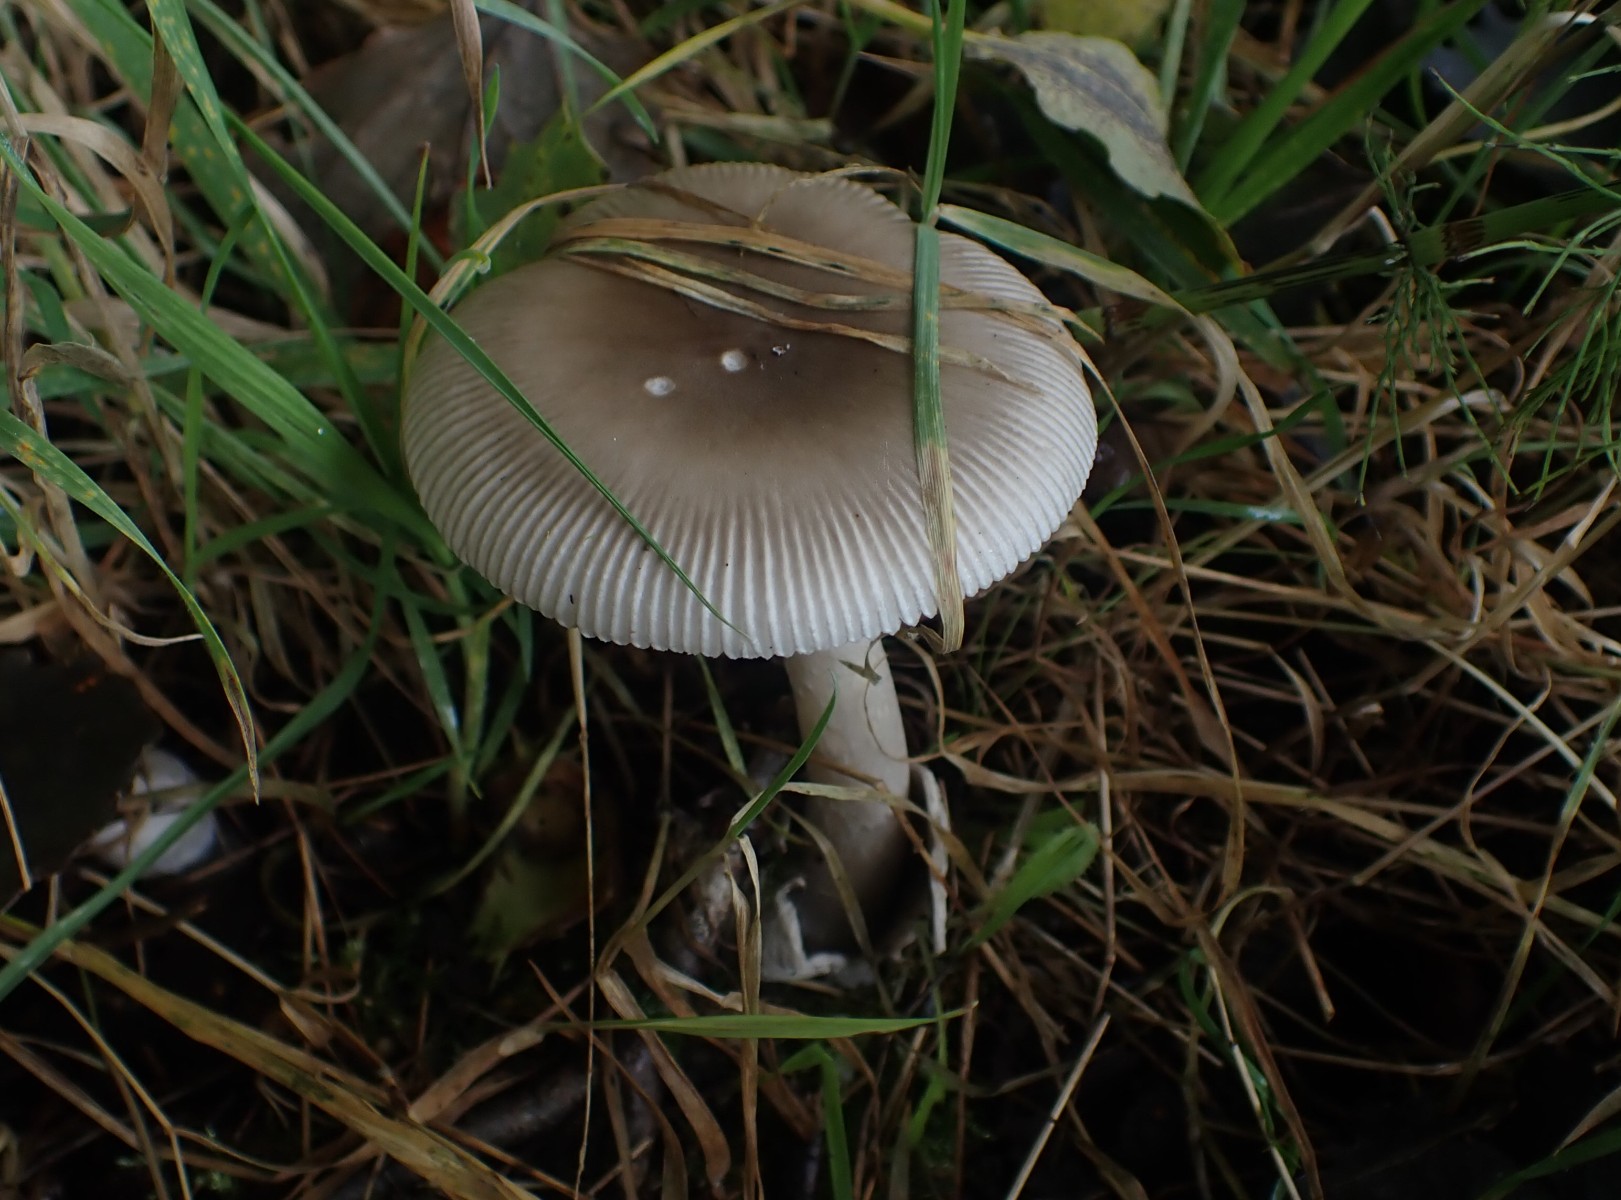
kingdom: Fungi
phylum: Basidiomycota
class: Agaricomycetes
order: Agaricales
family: Amanitaceae
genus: Amanita
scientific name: Amanita vaginata
